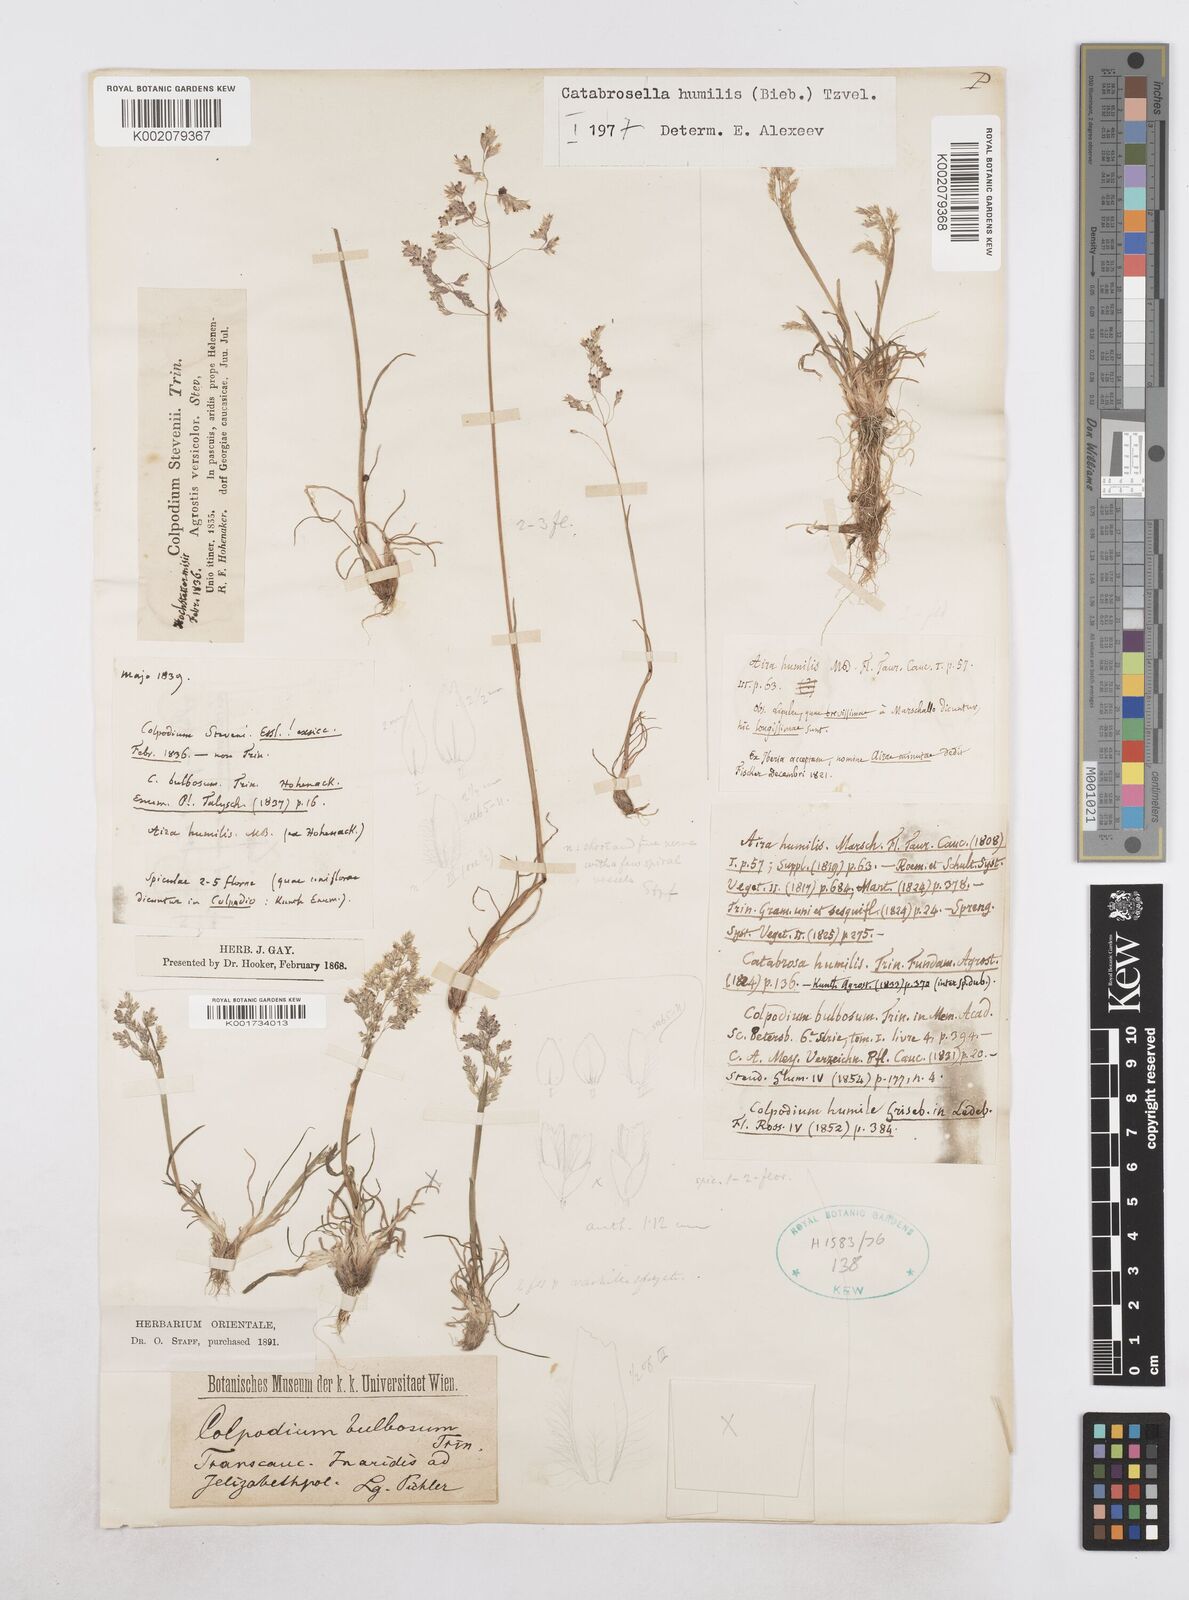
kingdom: Plantae
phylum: Tracheophyta
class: Liliopsida
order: Poales
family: Poaceae
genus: Catabrosella
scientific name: Catabrosella humilis
